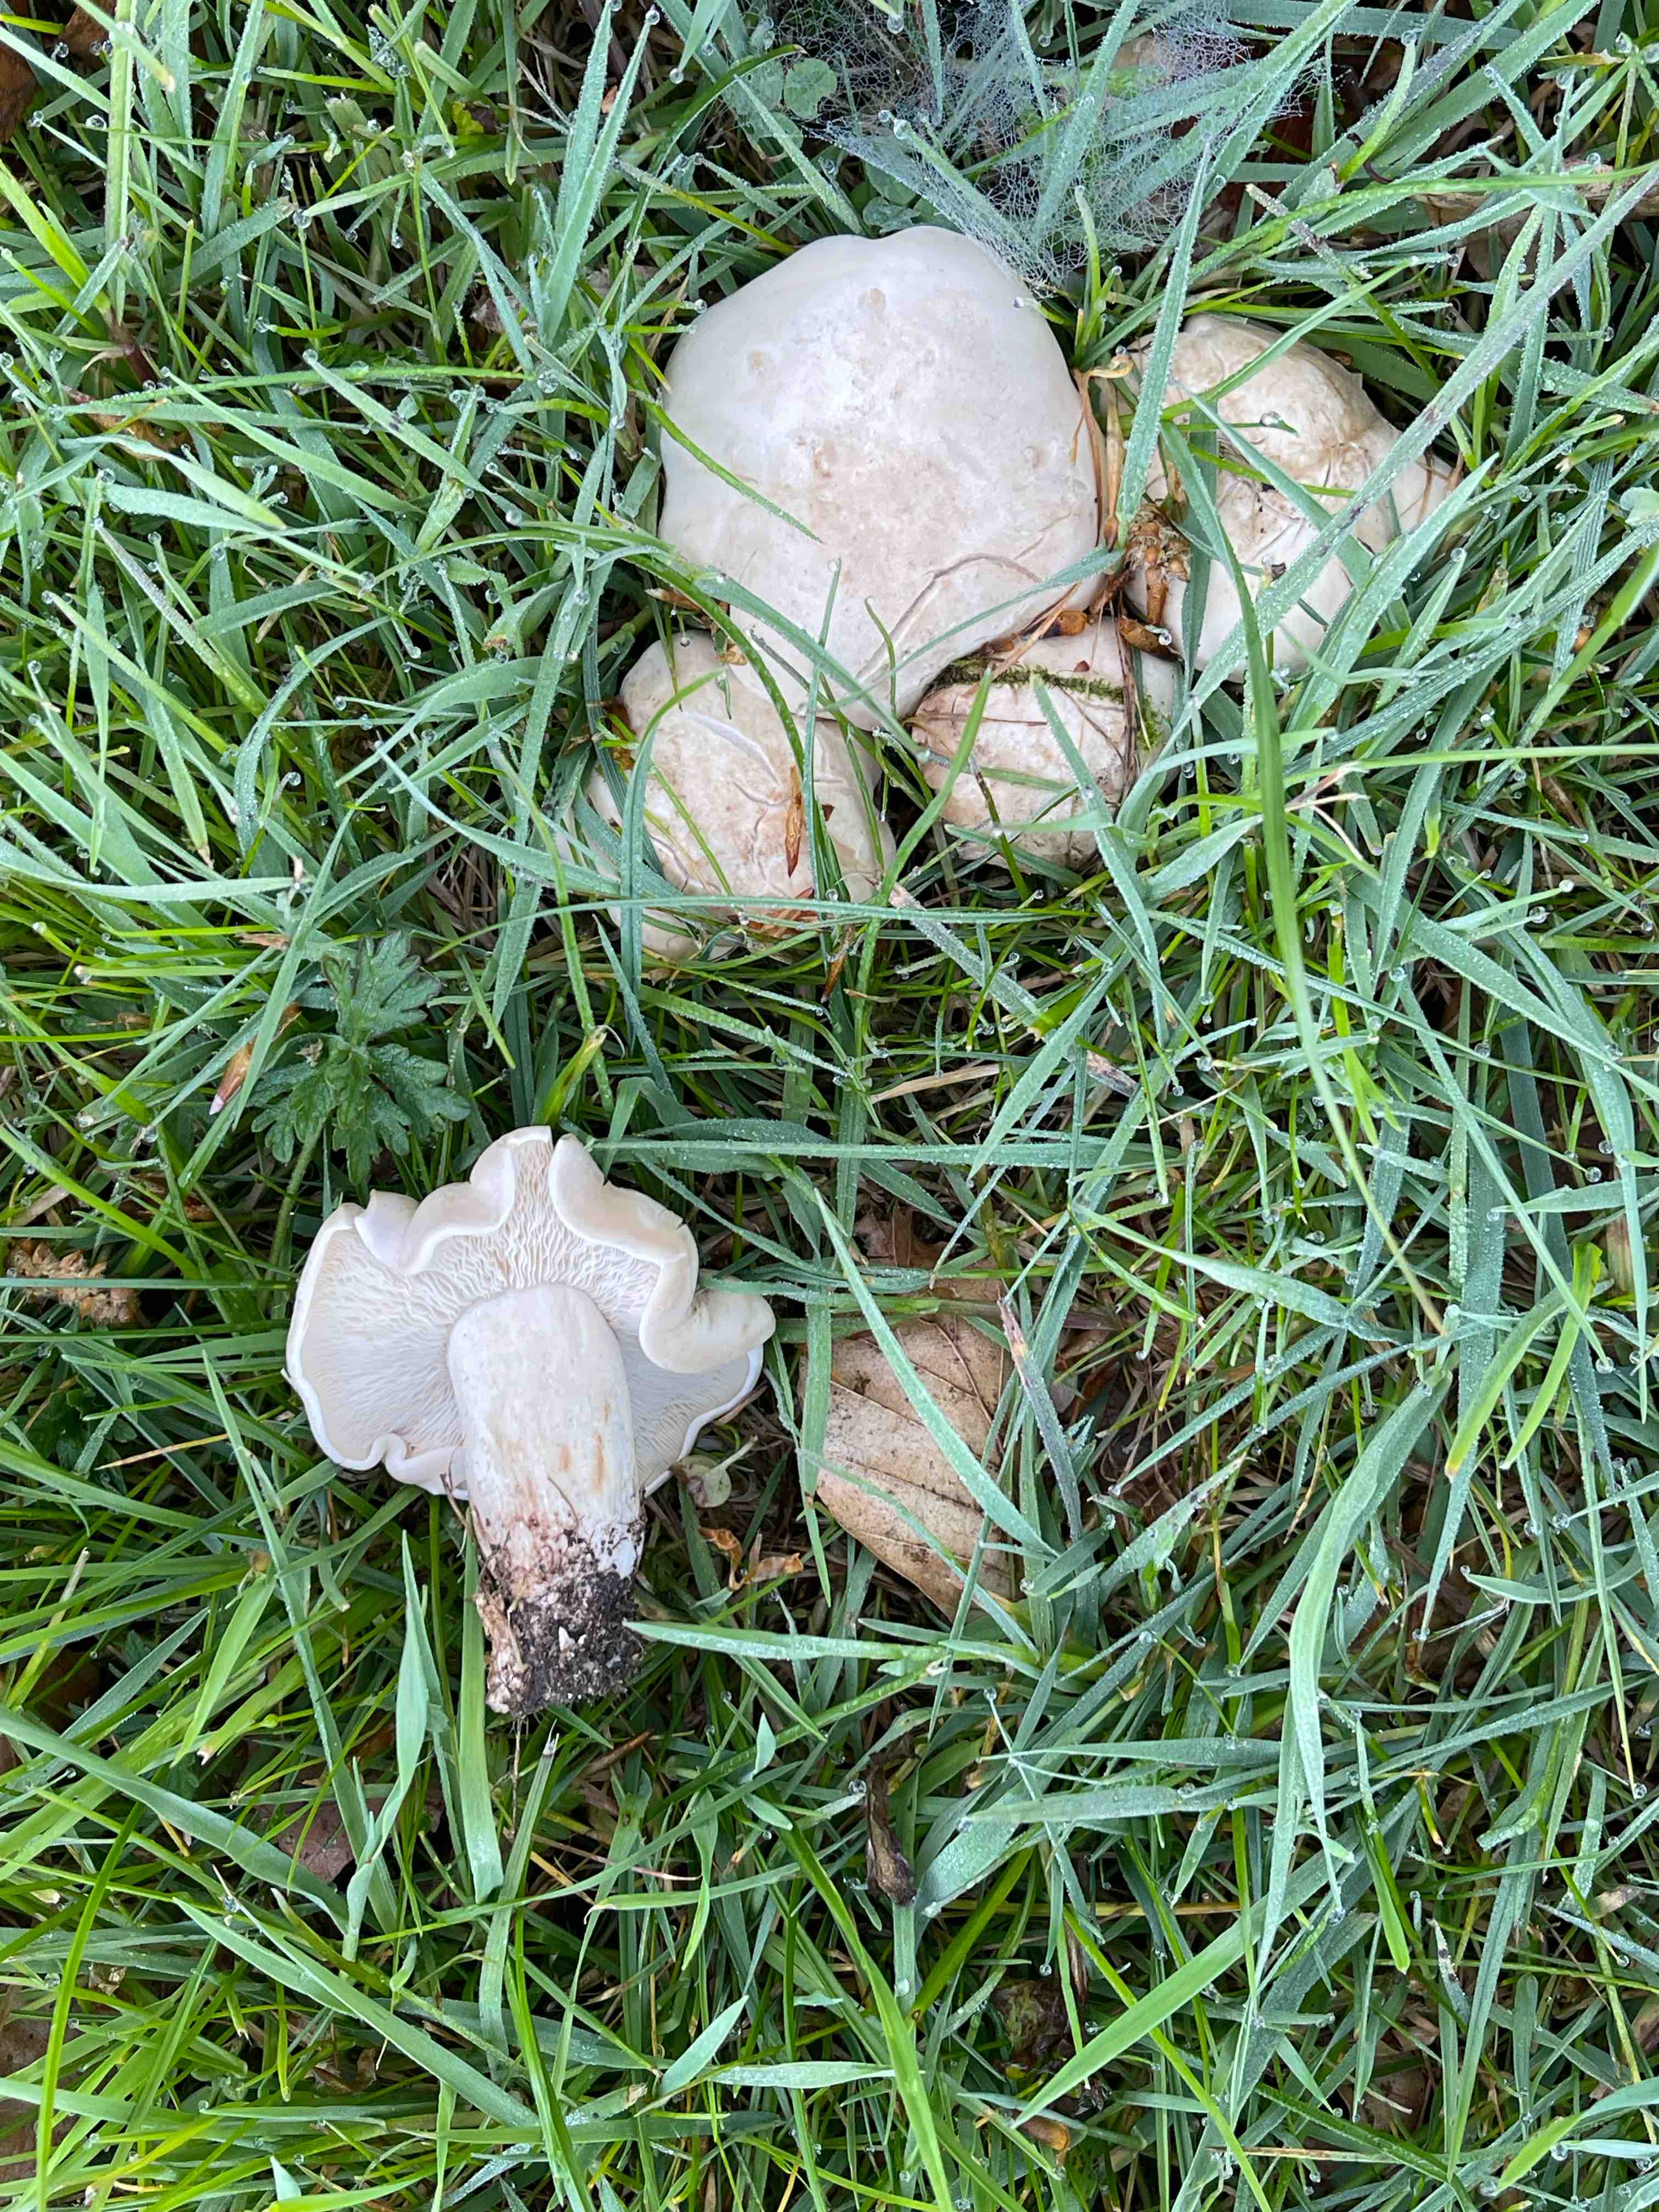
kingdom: Fungi
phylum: Basidiomycota
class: Agaricomycetes
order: Agaricales
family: Lyophyllaceae
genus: Calocybe
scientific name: Calocybe gambosa
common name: vårmusseron
